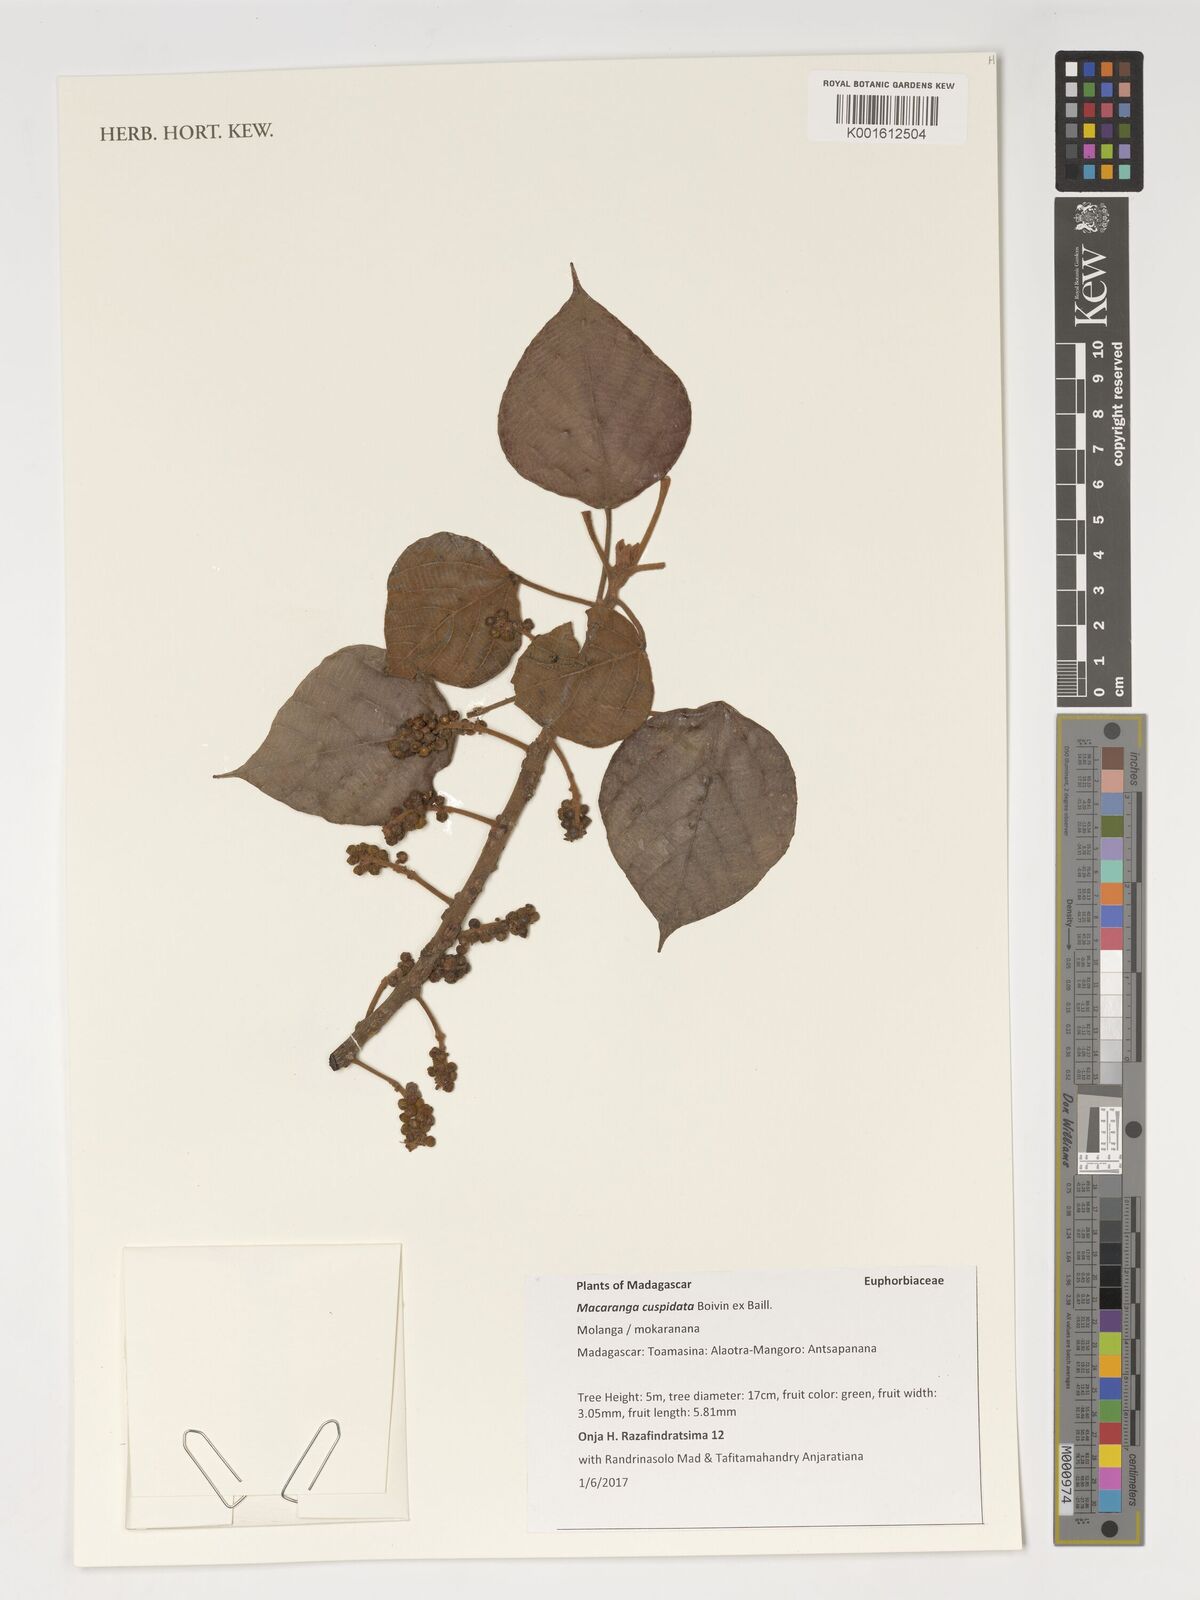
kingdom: Plantae
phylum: Tracheophyta
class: Magnoliopsida
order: Malpighiales
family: Euphorbiaceae
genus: Macaranga
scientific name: Macaranga cuspidata
